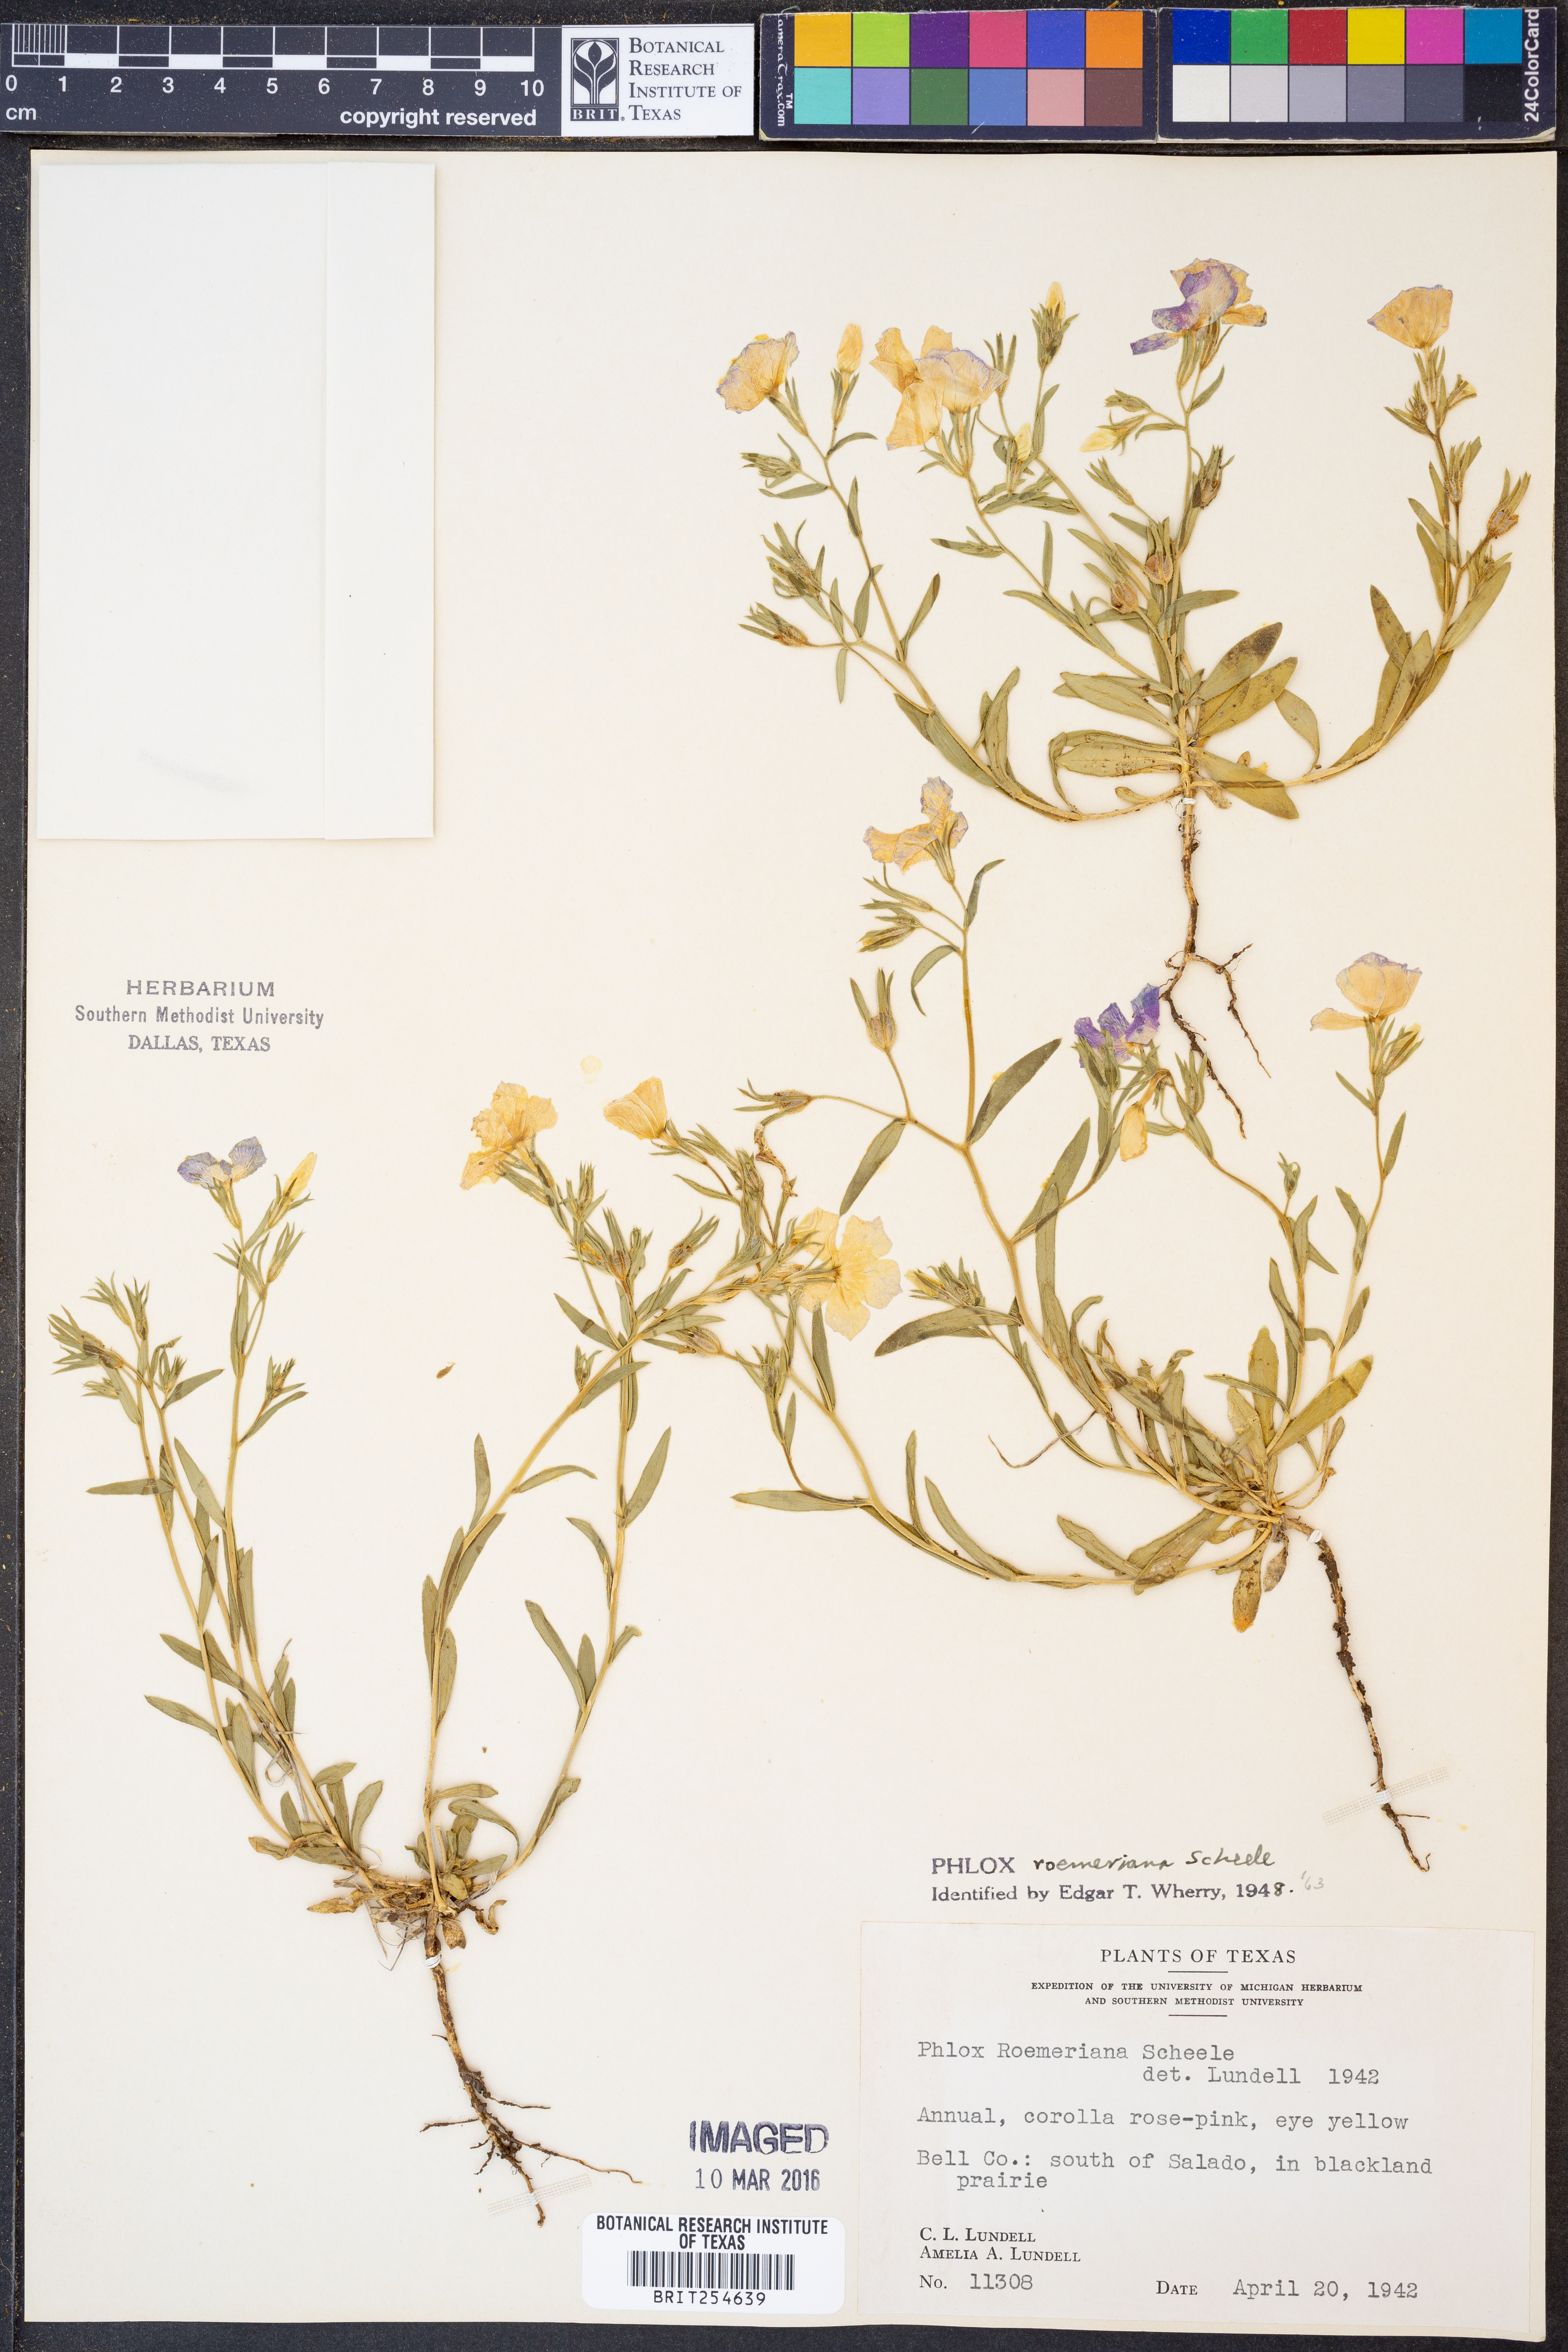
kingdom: Plantae
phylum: Tracheophyta
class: Magnoliopsida
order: Ericales
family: Polemoniaceae
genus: Phlox
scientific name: Phlox roemeriana
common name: Roemer's phlox
